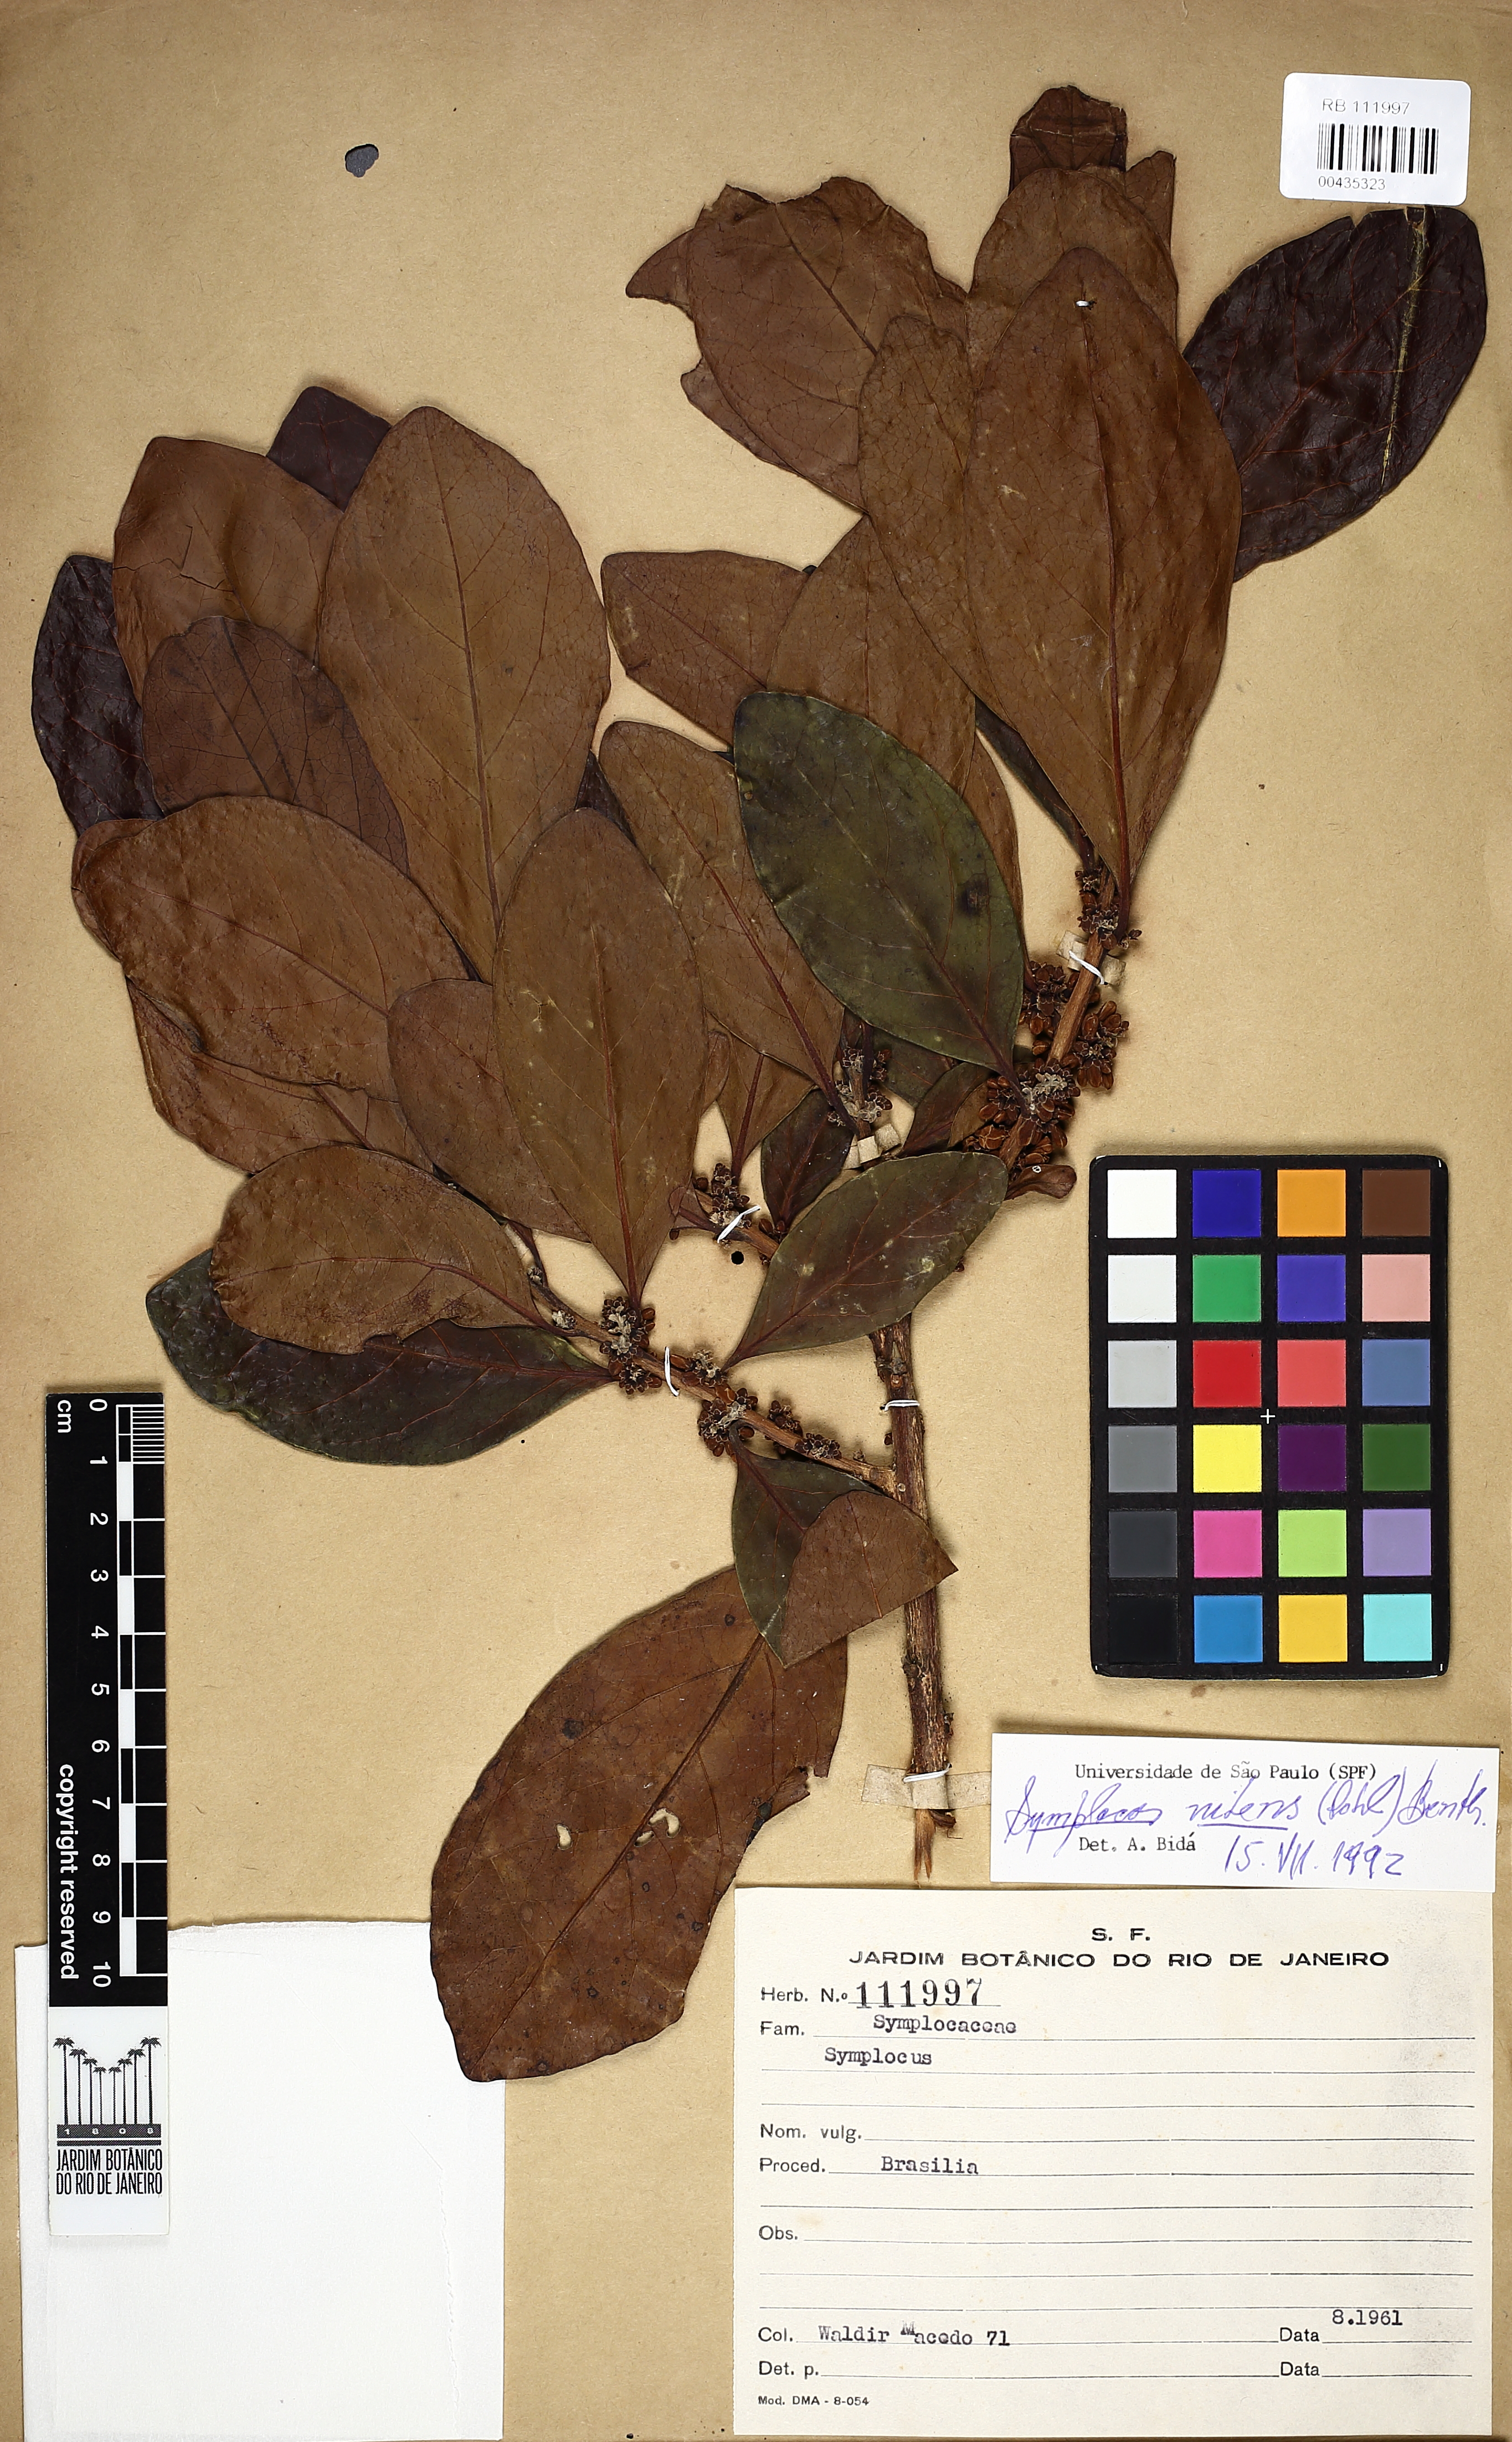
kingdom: Plantae
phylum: Tracheophyta
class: Magnoliopsida
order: Ericales
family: Symplocaceae
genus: Symplocos
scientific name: Symplocos nitens
